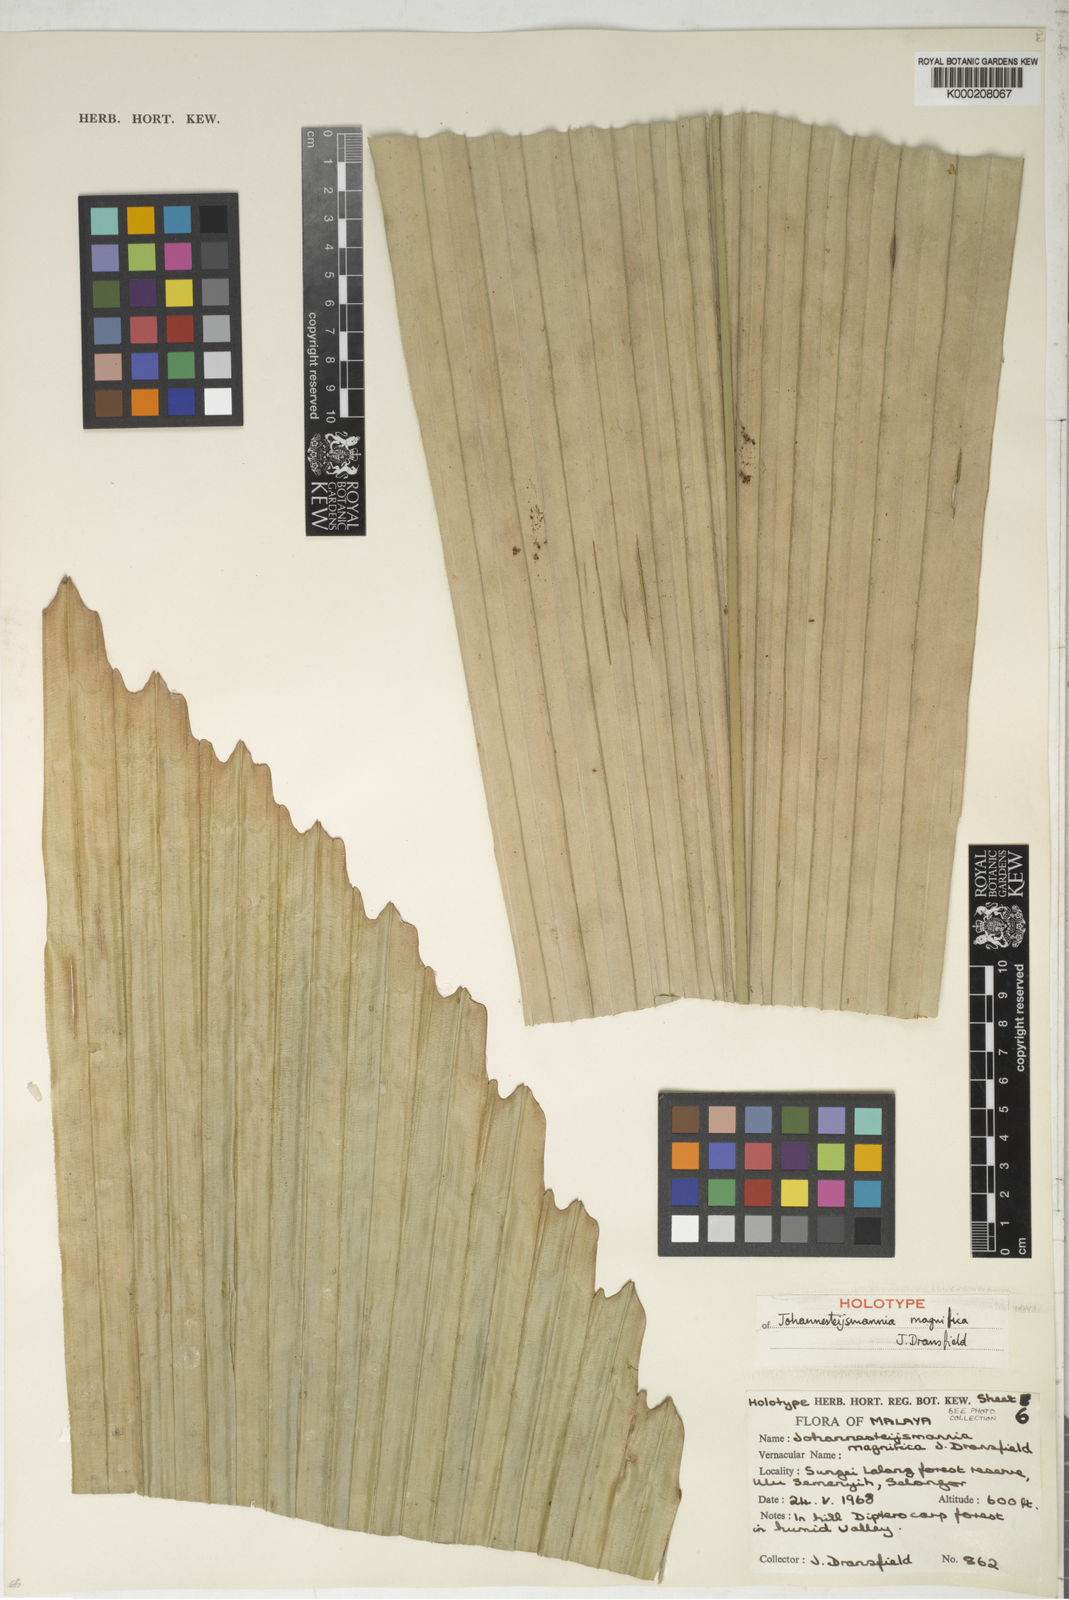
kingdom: Plantae
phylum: Tracheophyta
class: Liliopsida
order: Arecales
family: Arecaceae
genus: Johannesteijsmannia
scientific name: Johannesteijsmannia magnifica
